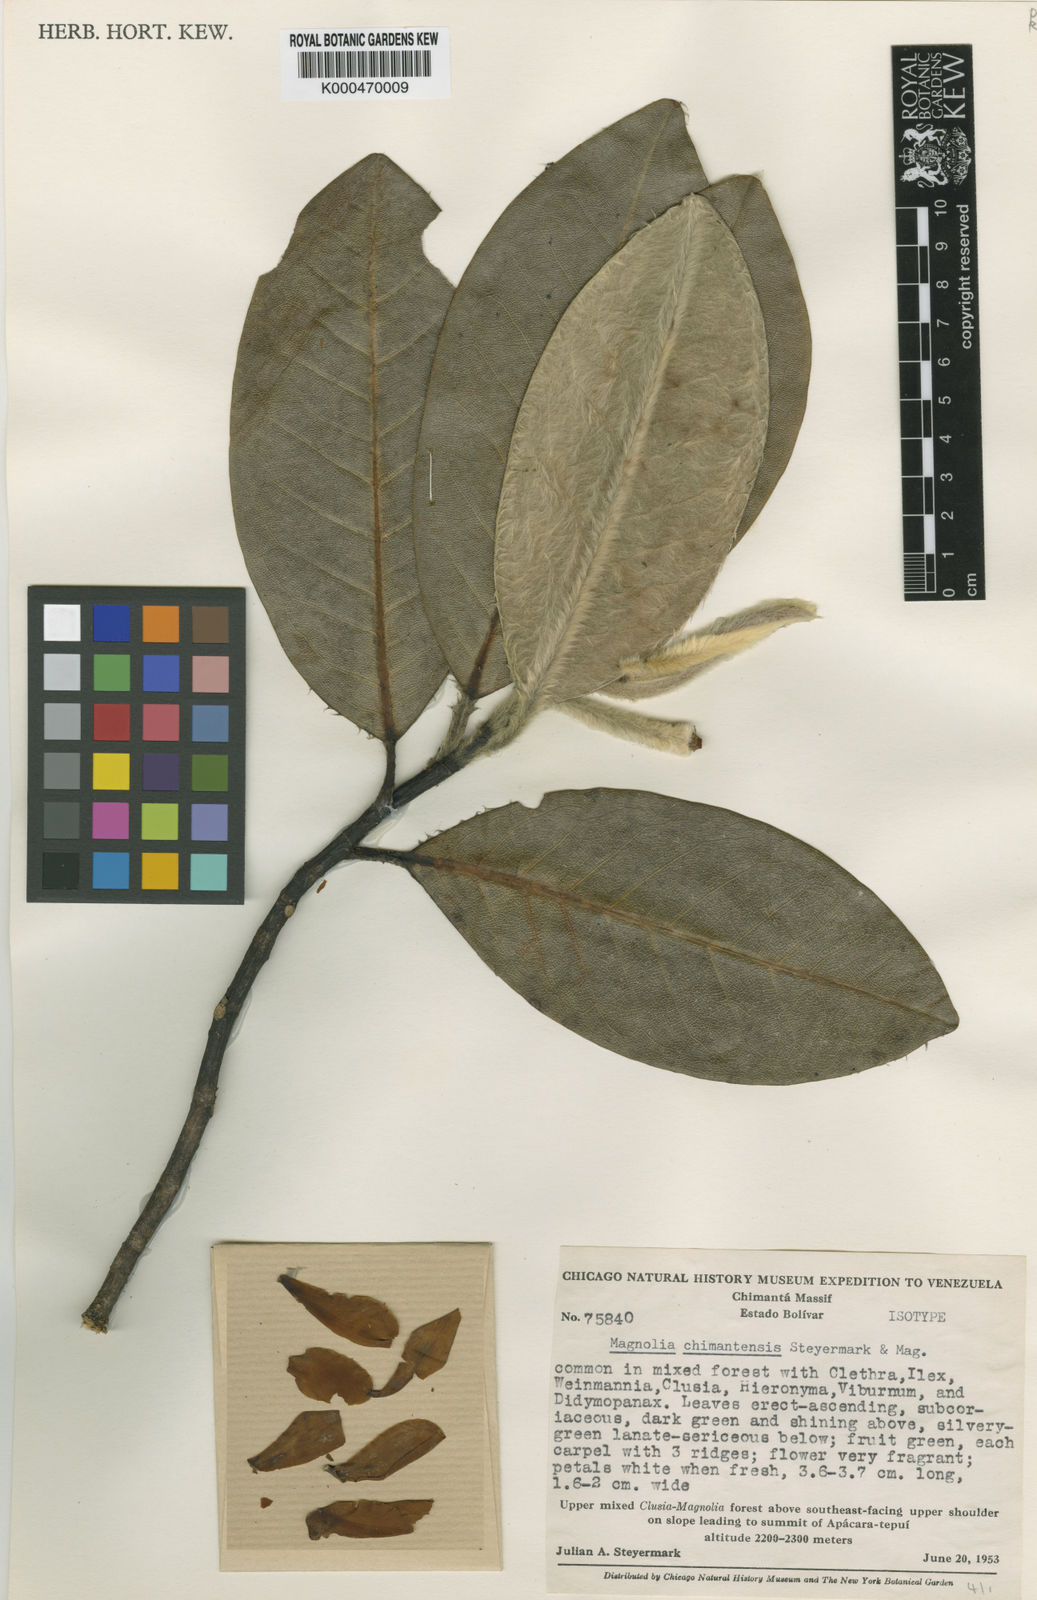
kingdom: Plantae
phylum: Tracheophyta
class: Magnoliopsida
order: Magnoliales
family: Magnoliaceae
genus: Magnolia
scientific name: Magnolia chimantensis
